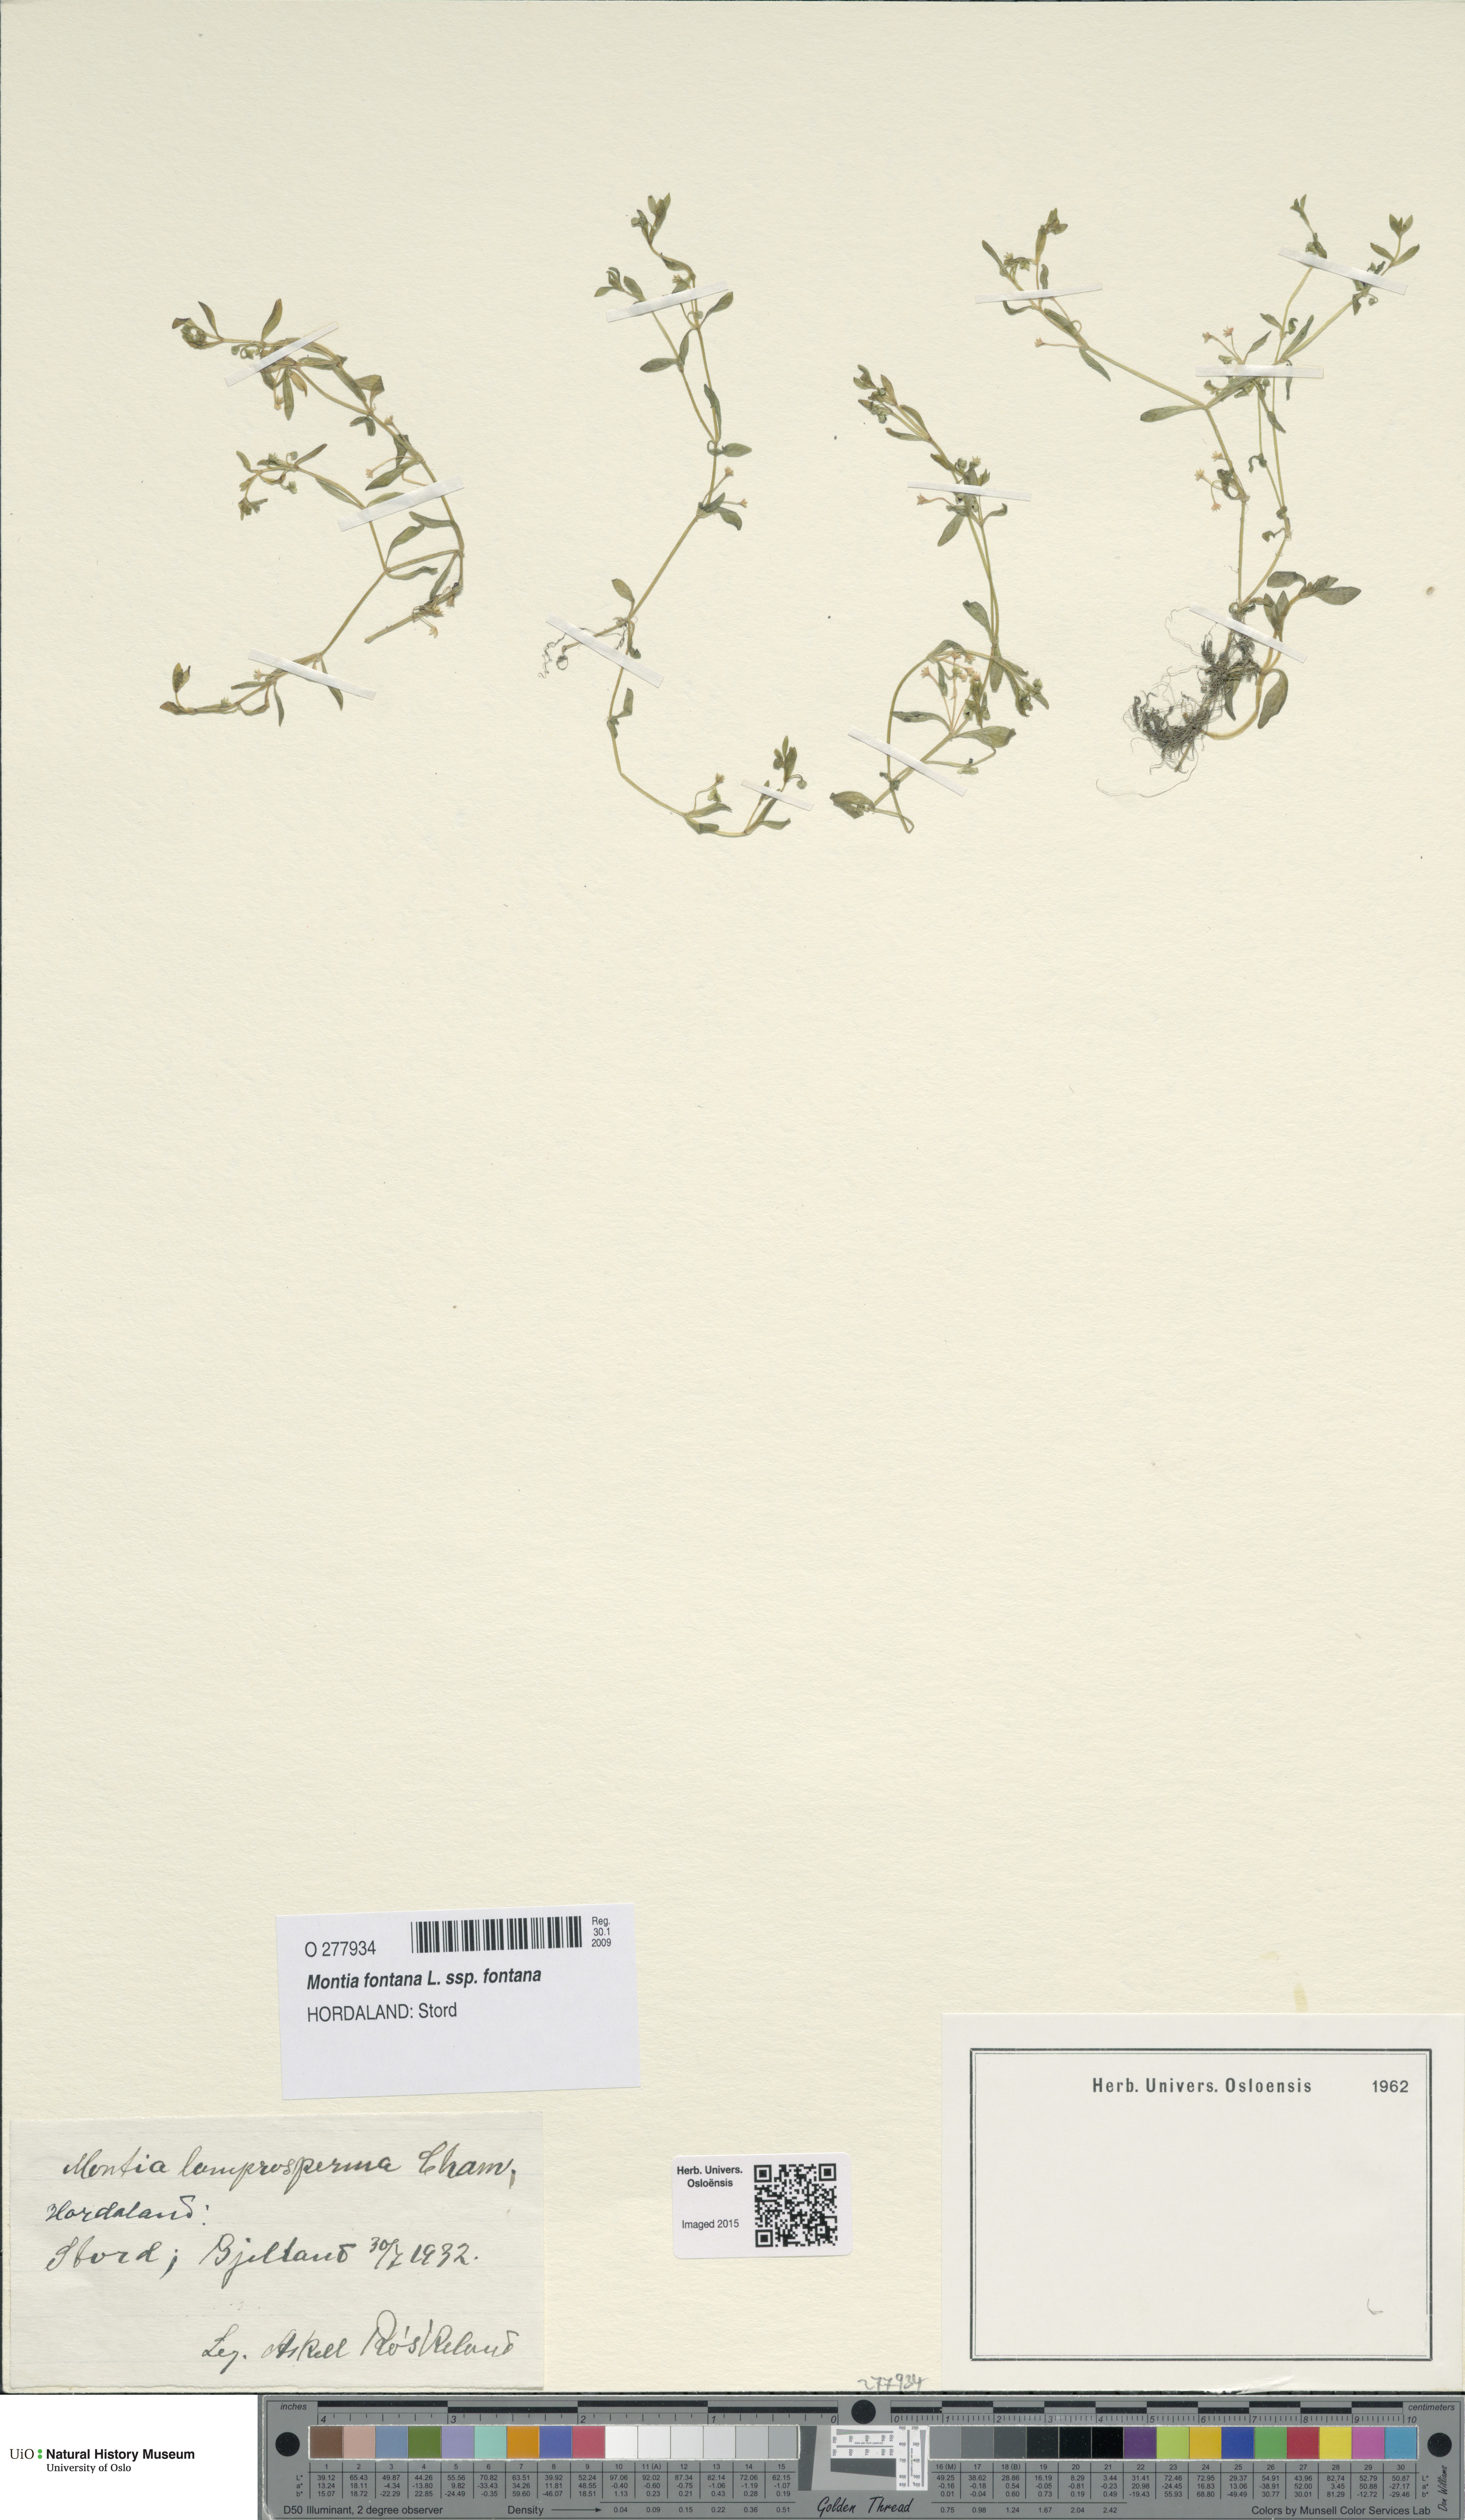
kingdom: Plantae
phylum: Tracheophyta
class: Magnoliopsida
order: Caryophyllales
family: Montiaceae
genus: Montia
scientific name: Montia fontana
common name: Blinks
